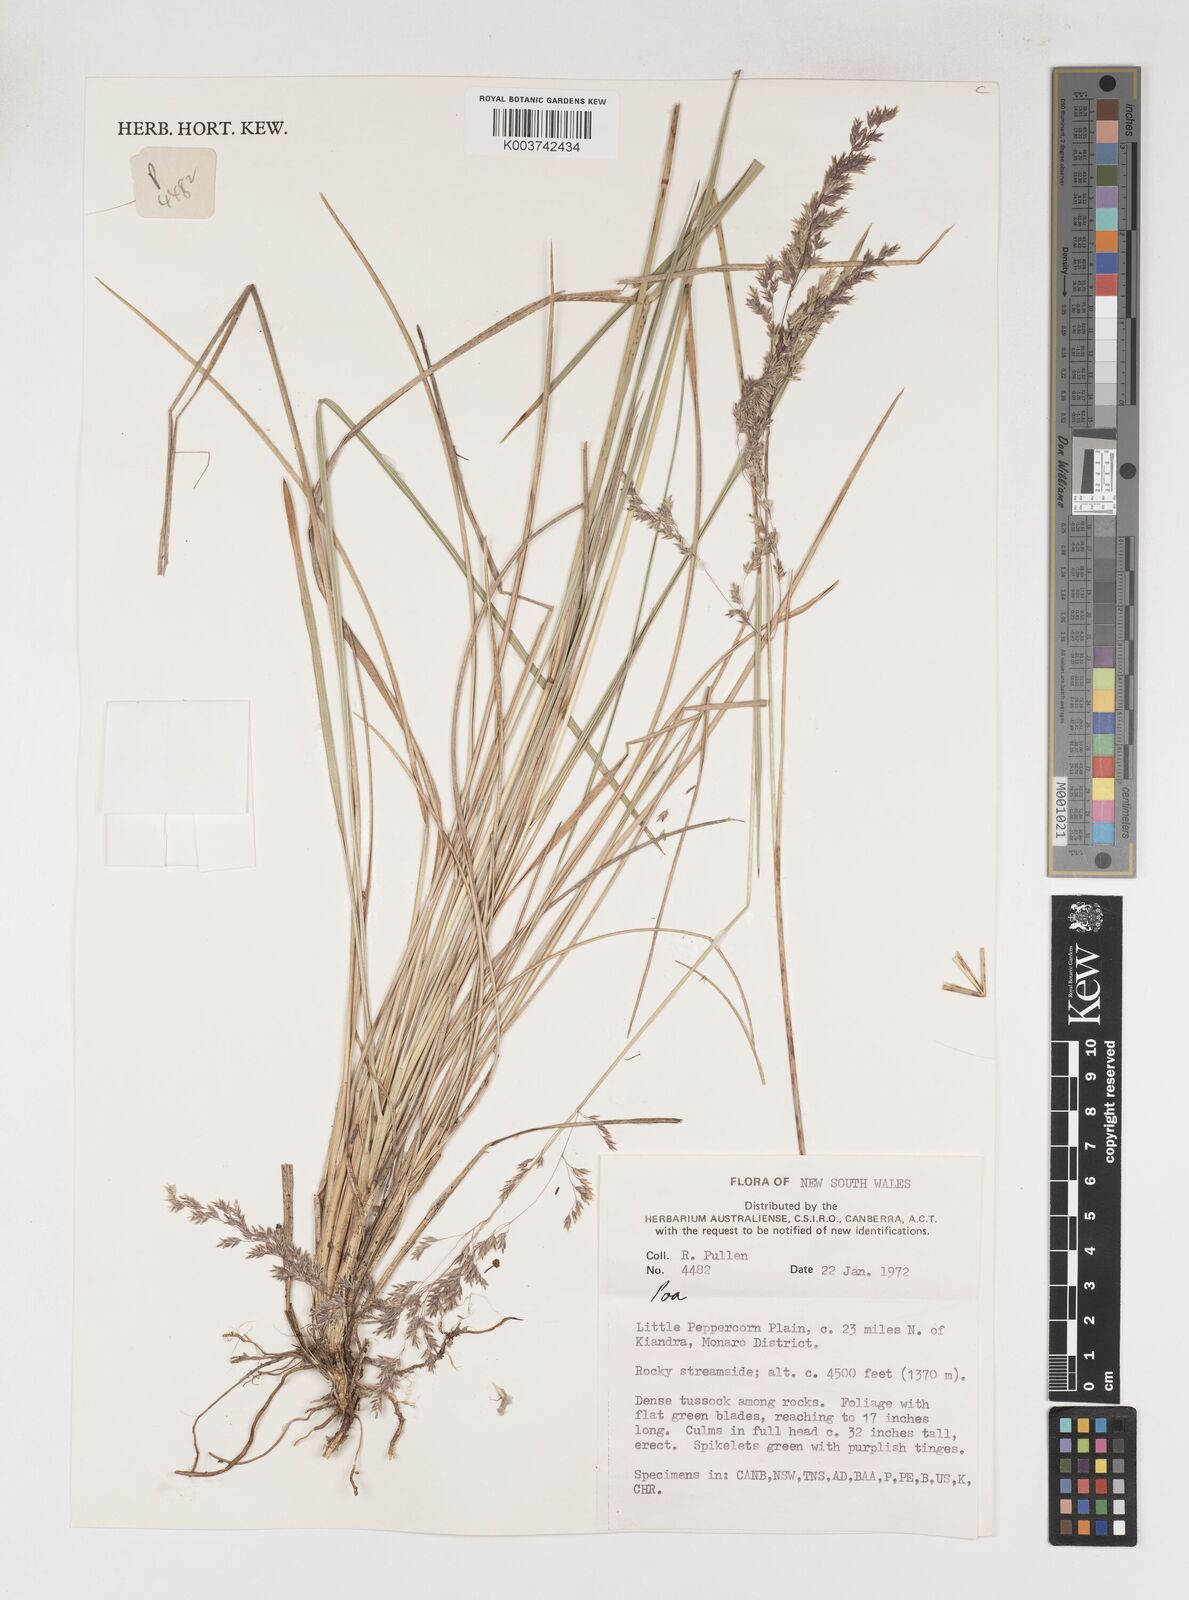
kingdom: Plantae
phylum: Tracheophyta
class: Liliopsida
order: Poales
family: Poaceae
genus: Poa
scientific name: Poa
